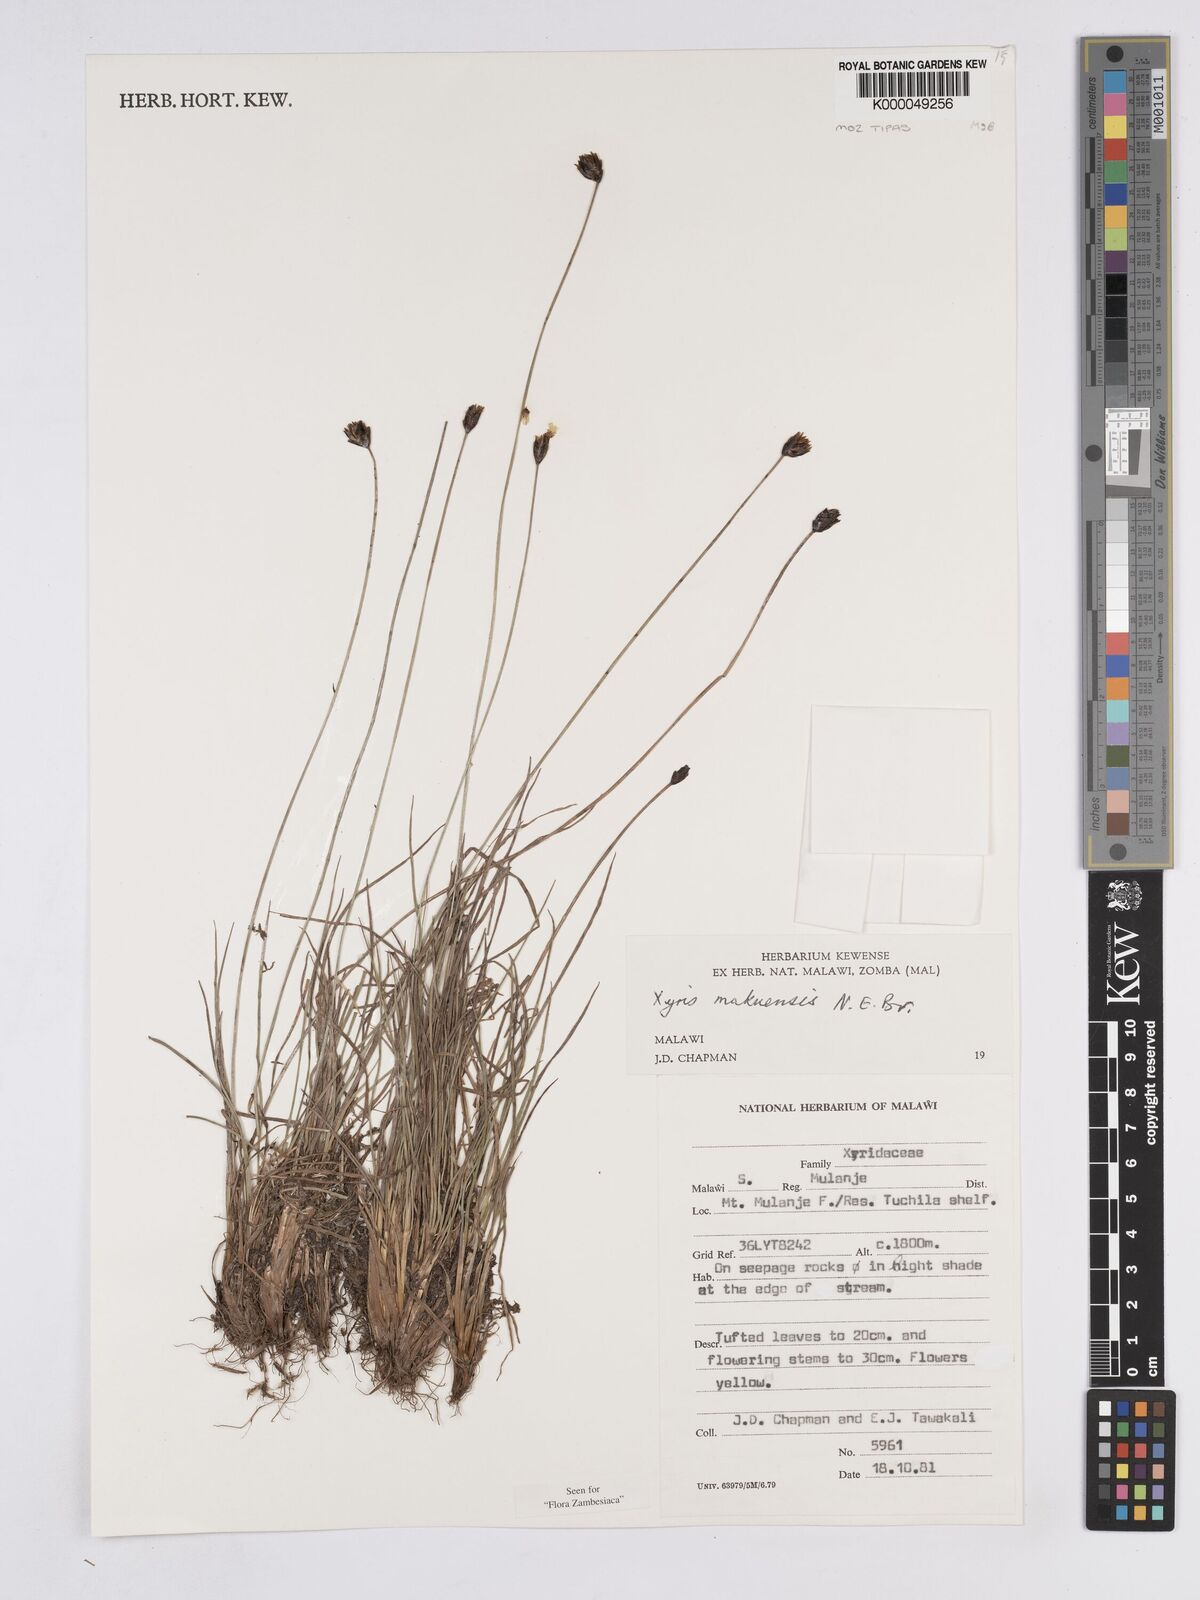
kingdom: Plantae
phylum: Tracheophyta
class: Liliopsida
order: Poales
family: Xyridaceae
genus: Xyris
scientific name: Xyris makuensis
